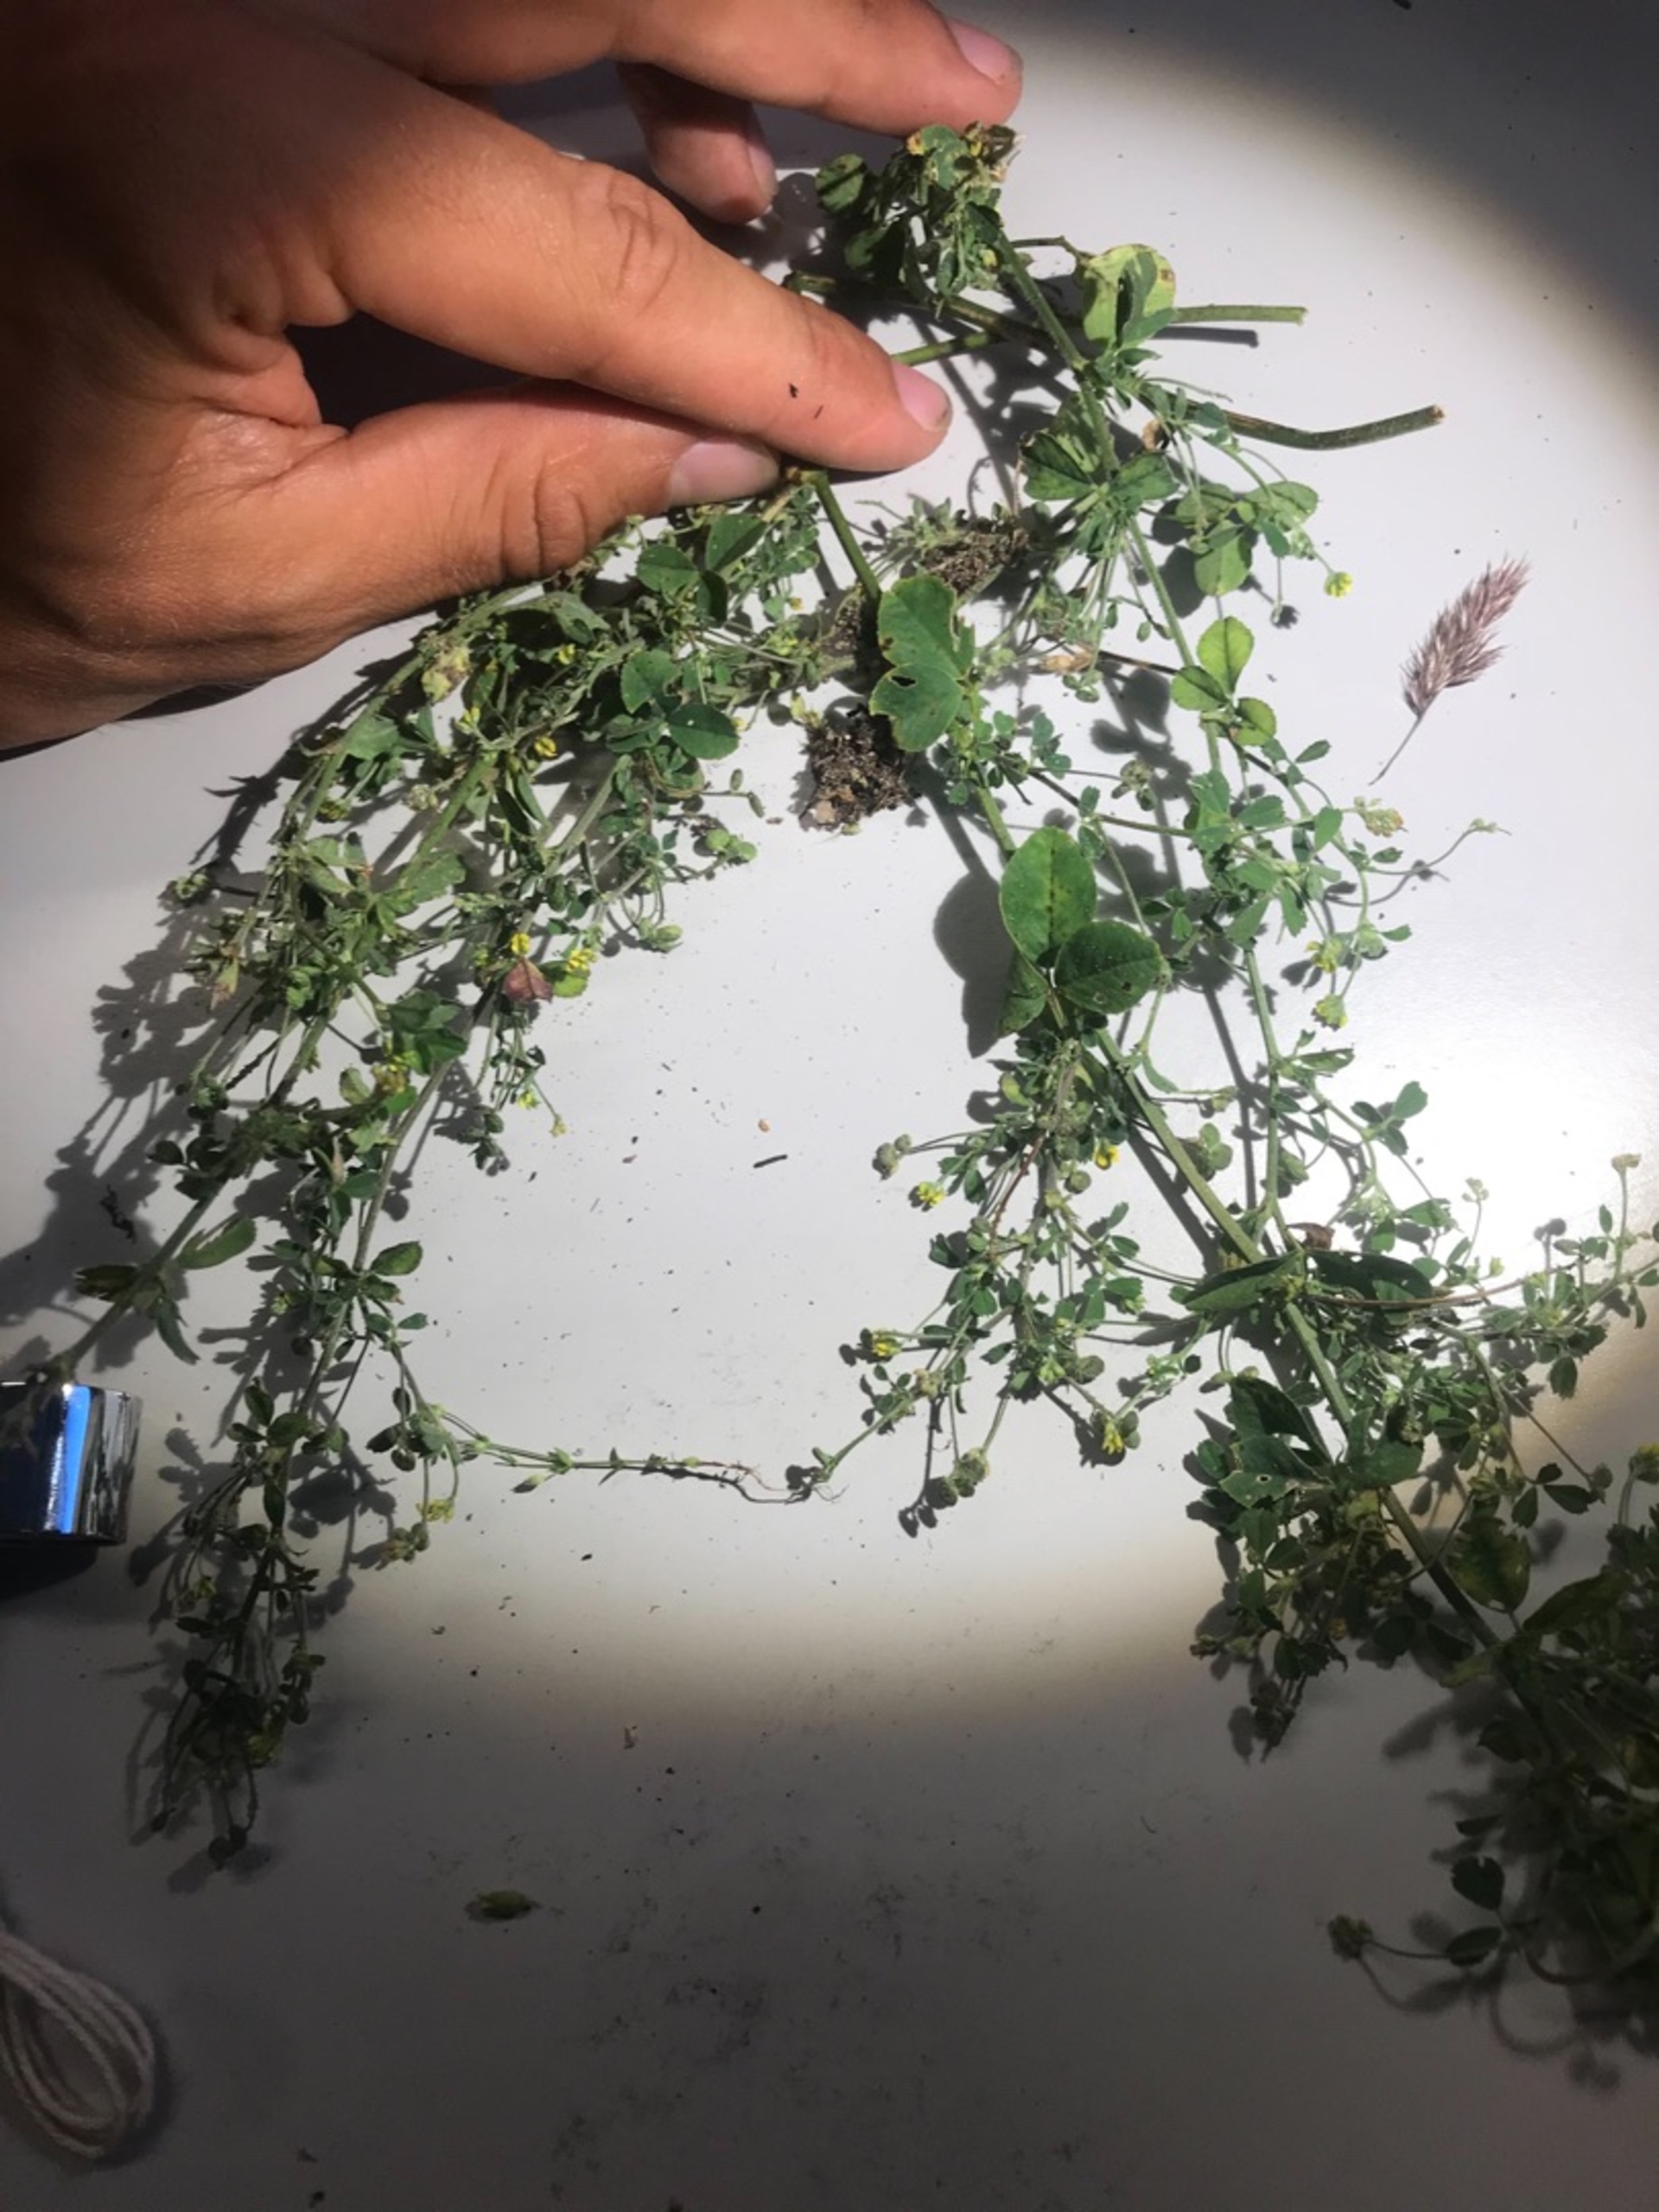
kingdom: Plantae
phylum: Tracheophyta
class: Magnoliopsida
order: Fabales
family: Fabaceae
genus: Medicago
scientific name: Medicago lupulina
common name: Humle-sneglebælg
